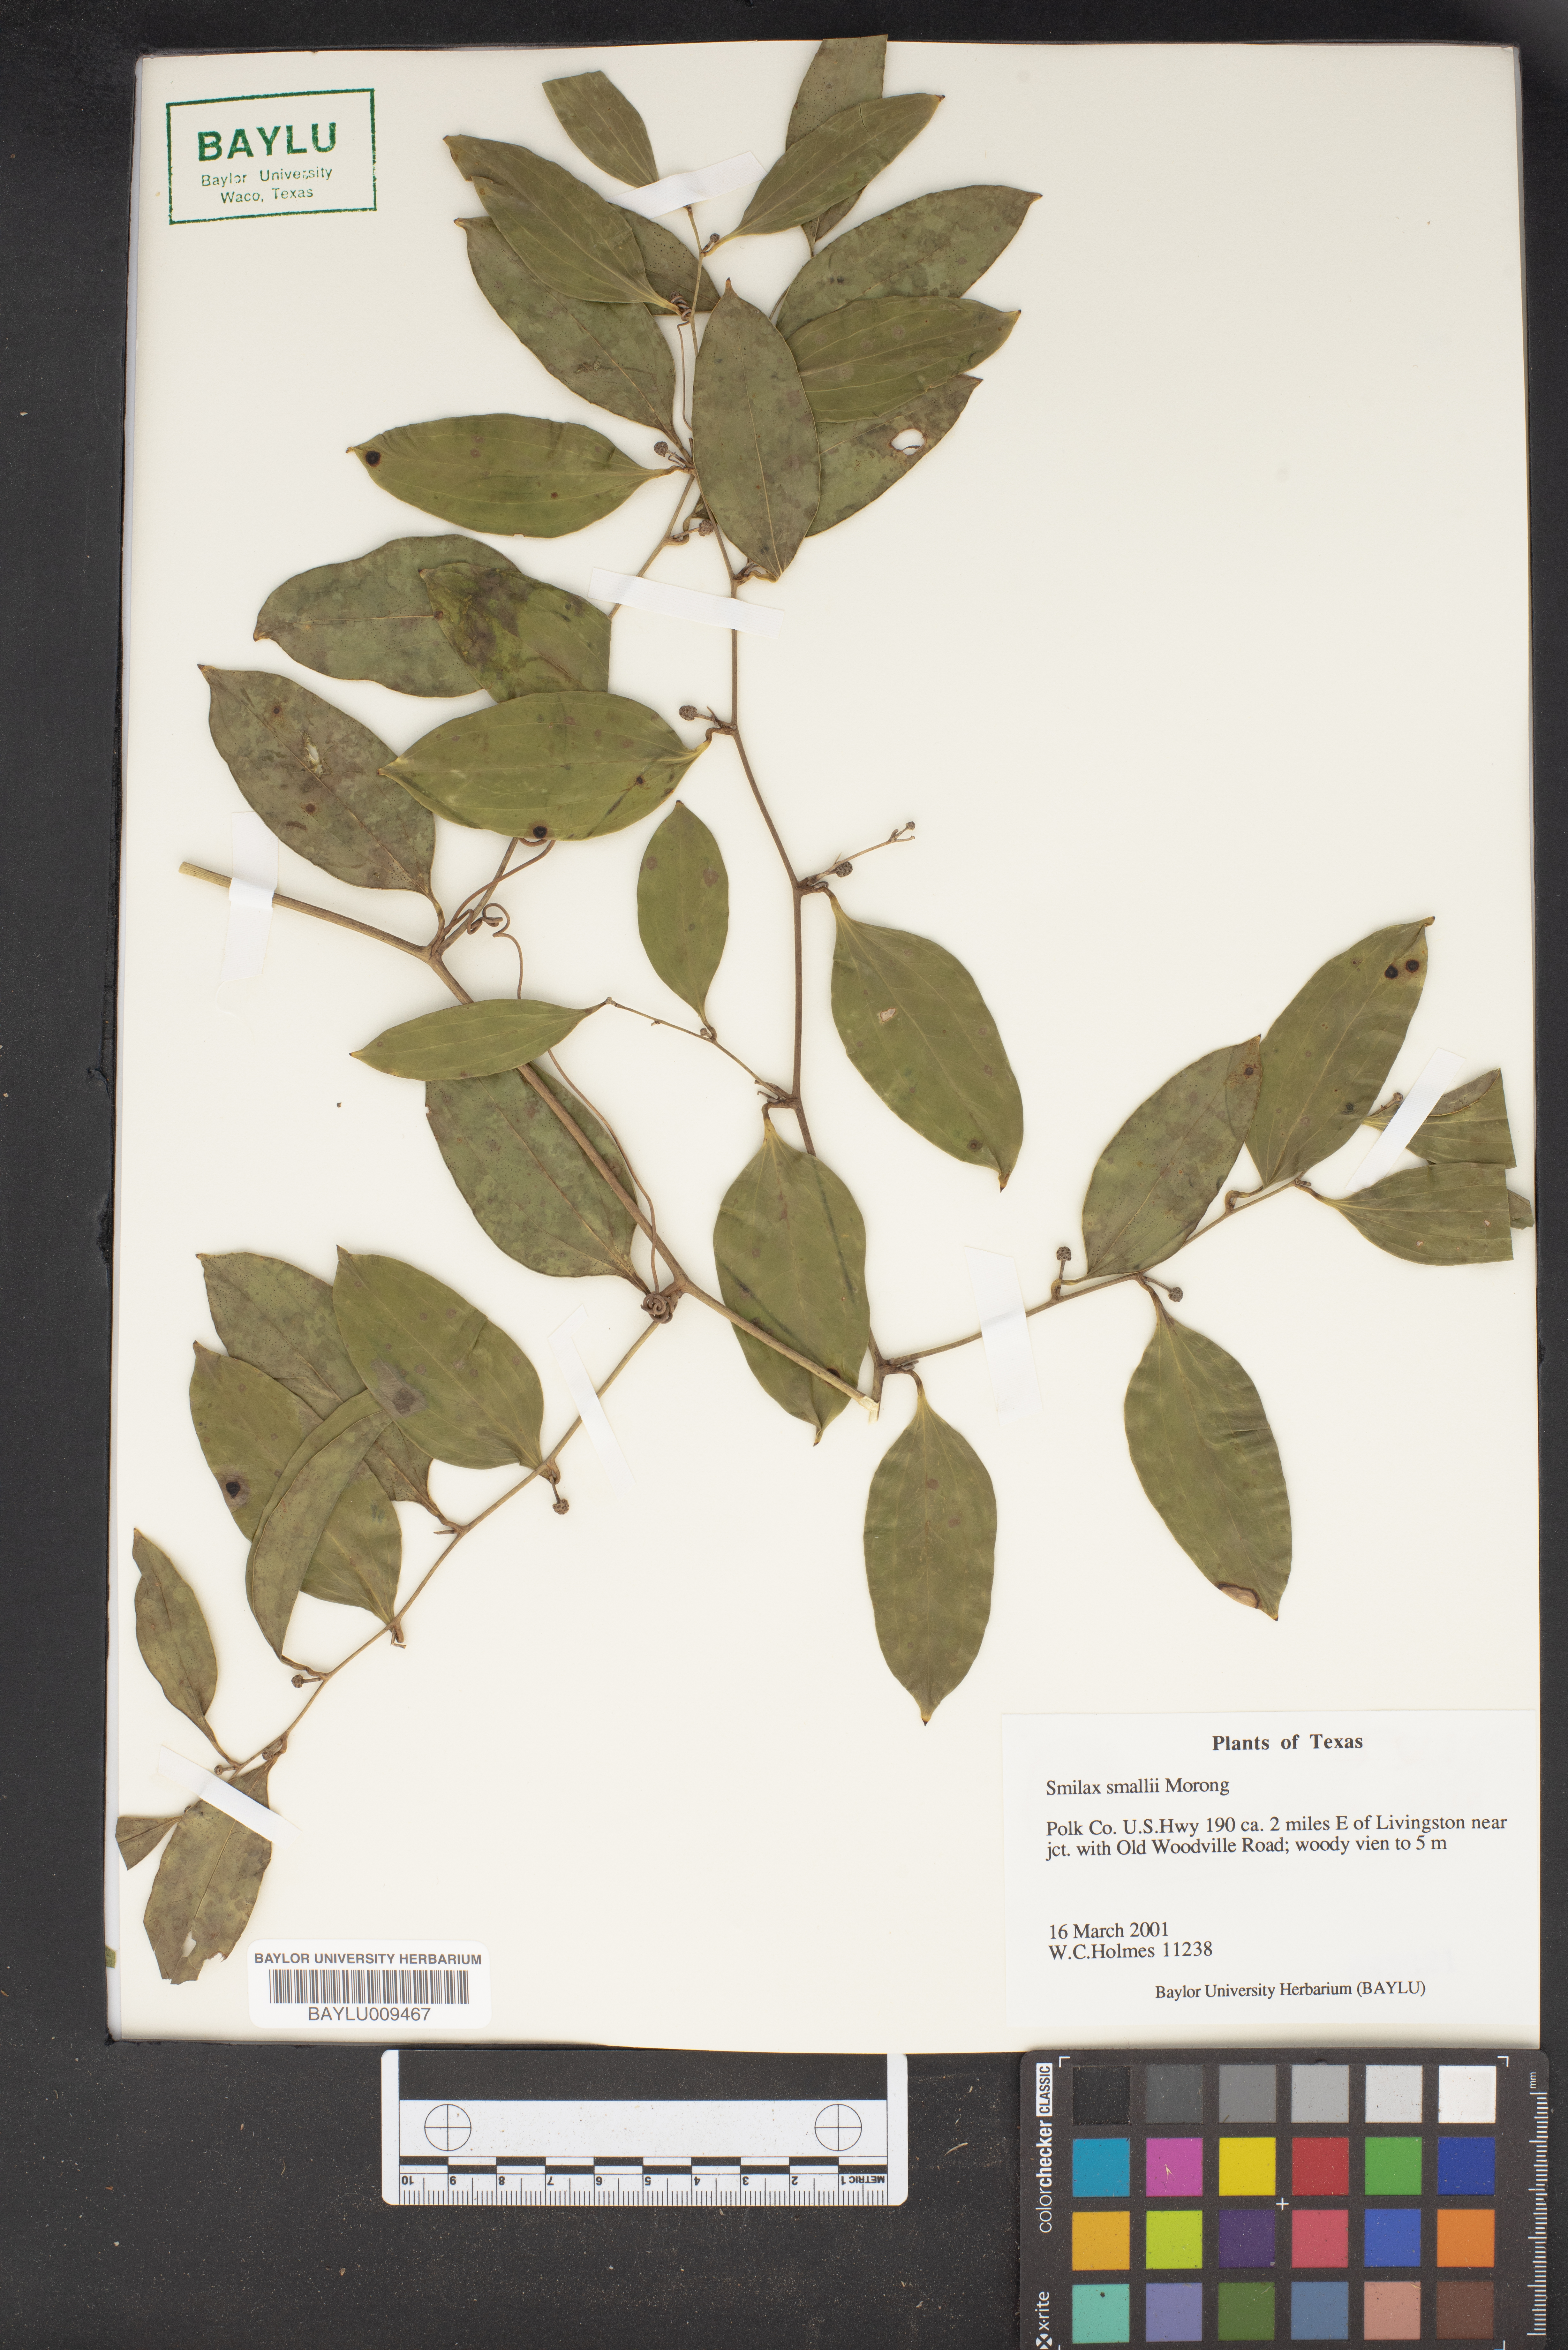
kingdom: Plantae
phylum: Tracheophyta
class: Liliopsida
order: Liliales
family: Smilacaceae
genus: Smilax
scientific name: Smilax maritima
